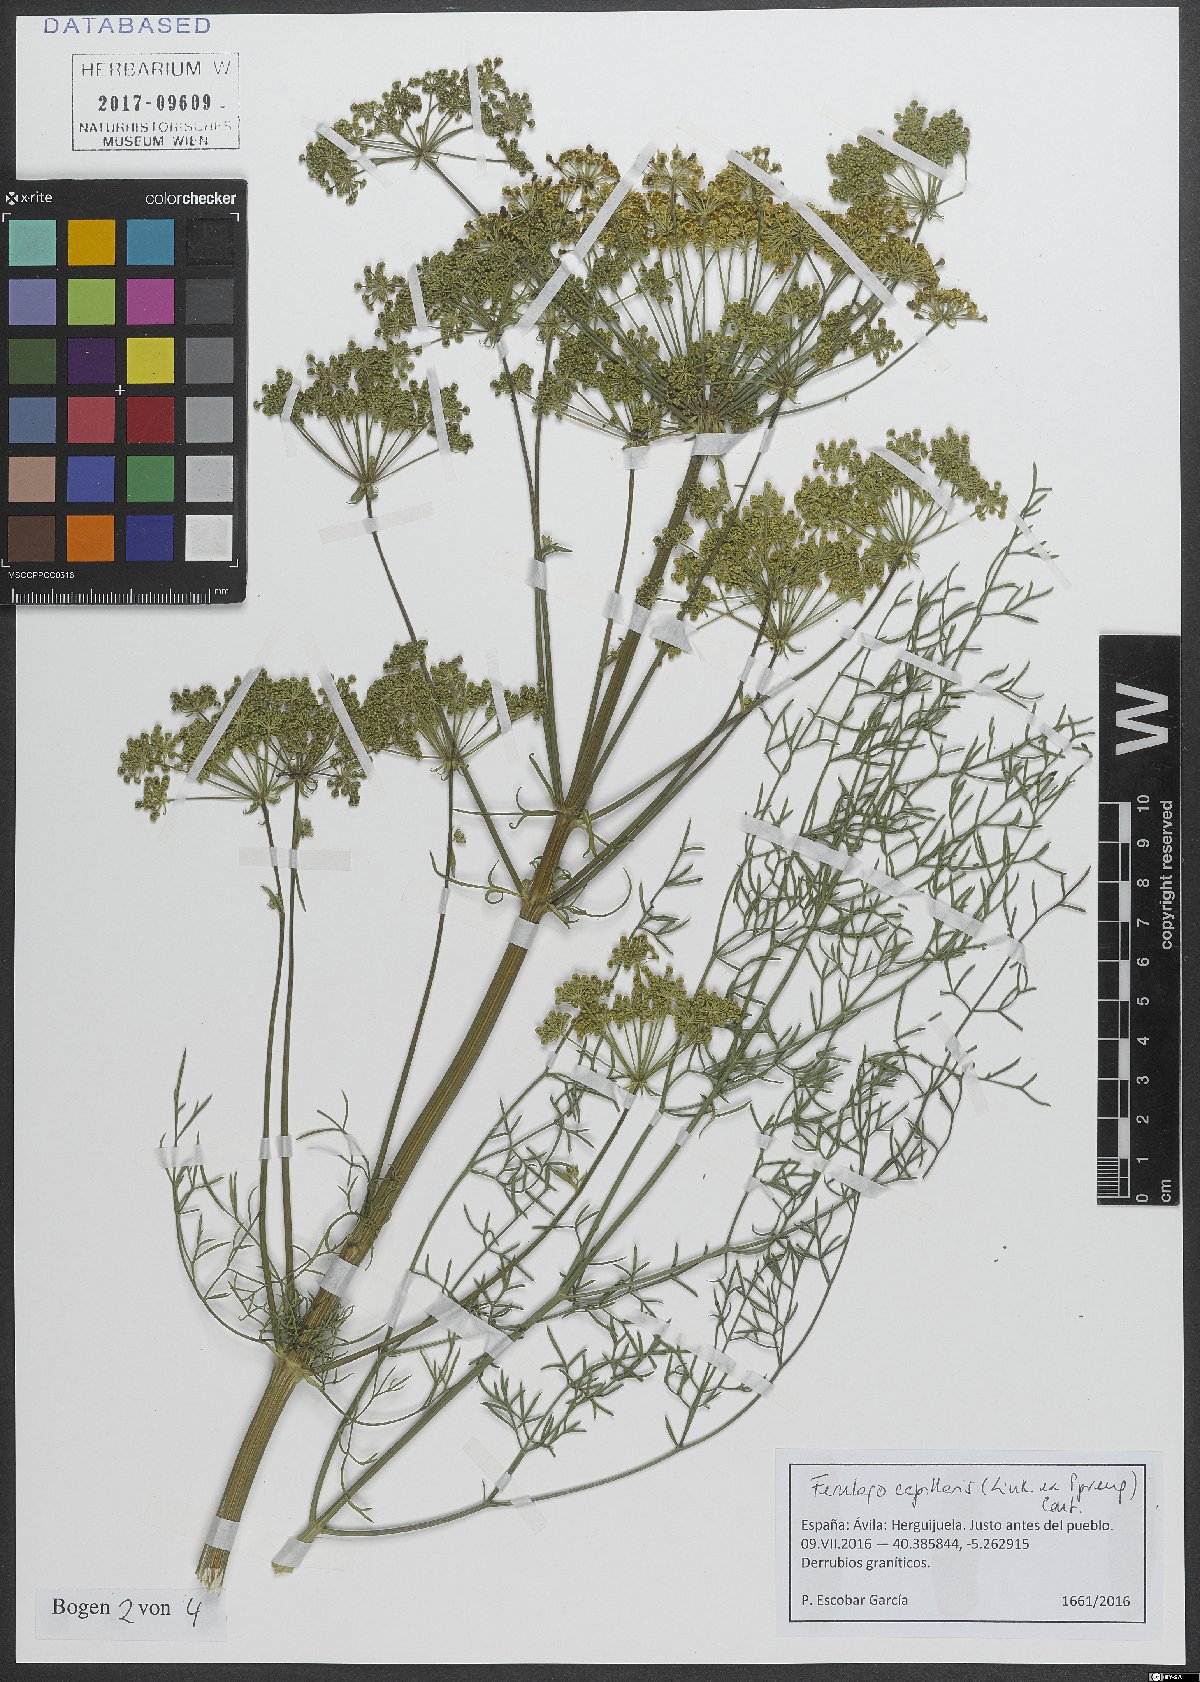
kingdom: Plantae
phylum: Tracheophyta
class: Magnoliopsida
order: Apiales
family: Apiaceae
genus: Ferulago
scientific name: Ferulago capillaris
